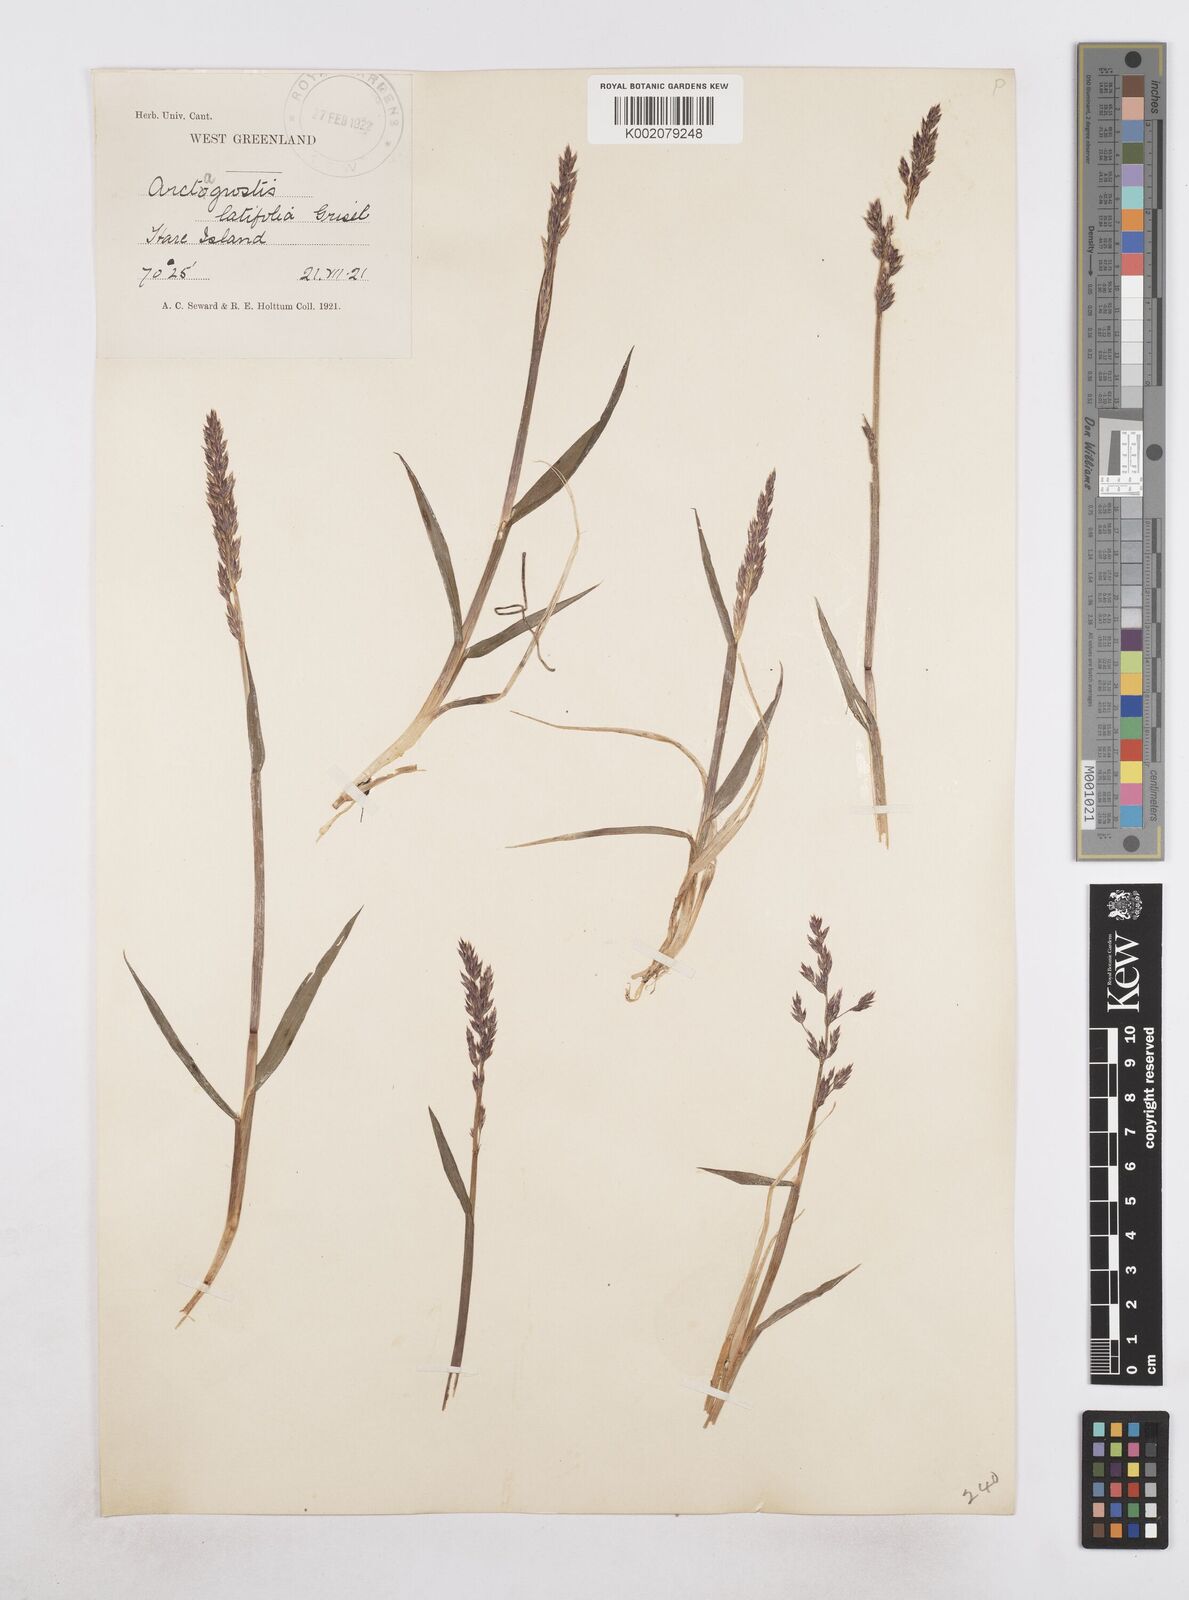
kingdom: Plantae
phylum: Tracheophyta
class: Liliopsida
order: Poales
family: Poaceae
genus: Arctagrostis
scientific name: Arctagrostis latifolia
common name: Arctic grass
